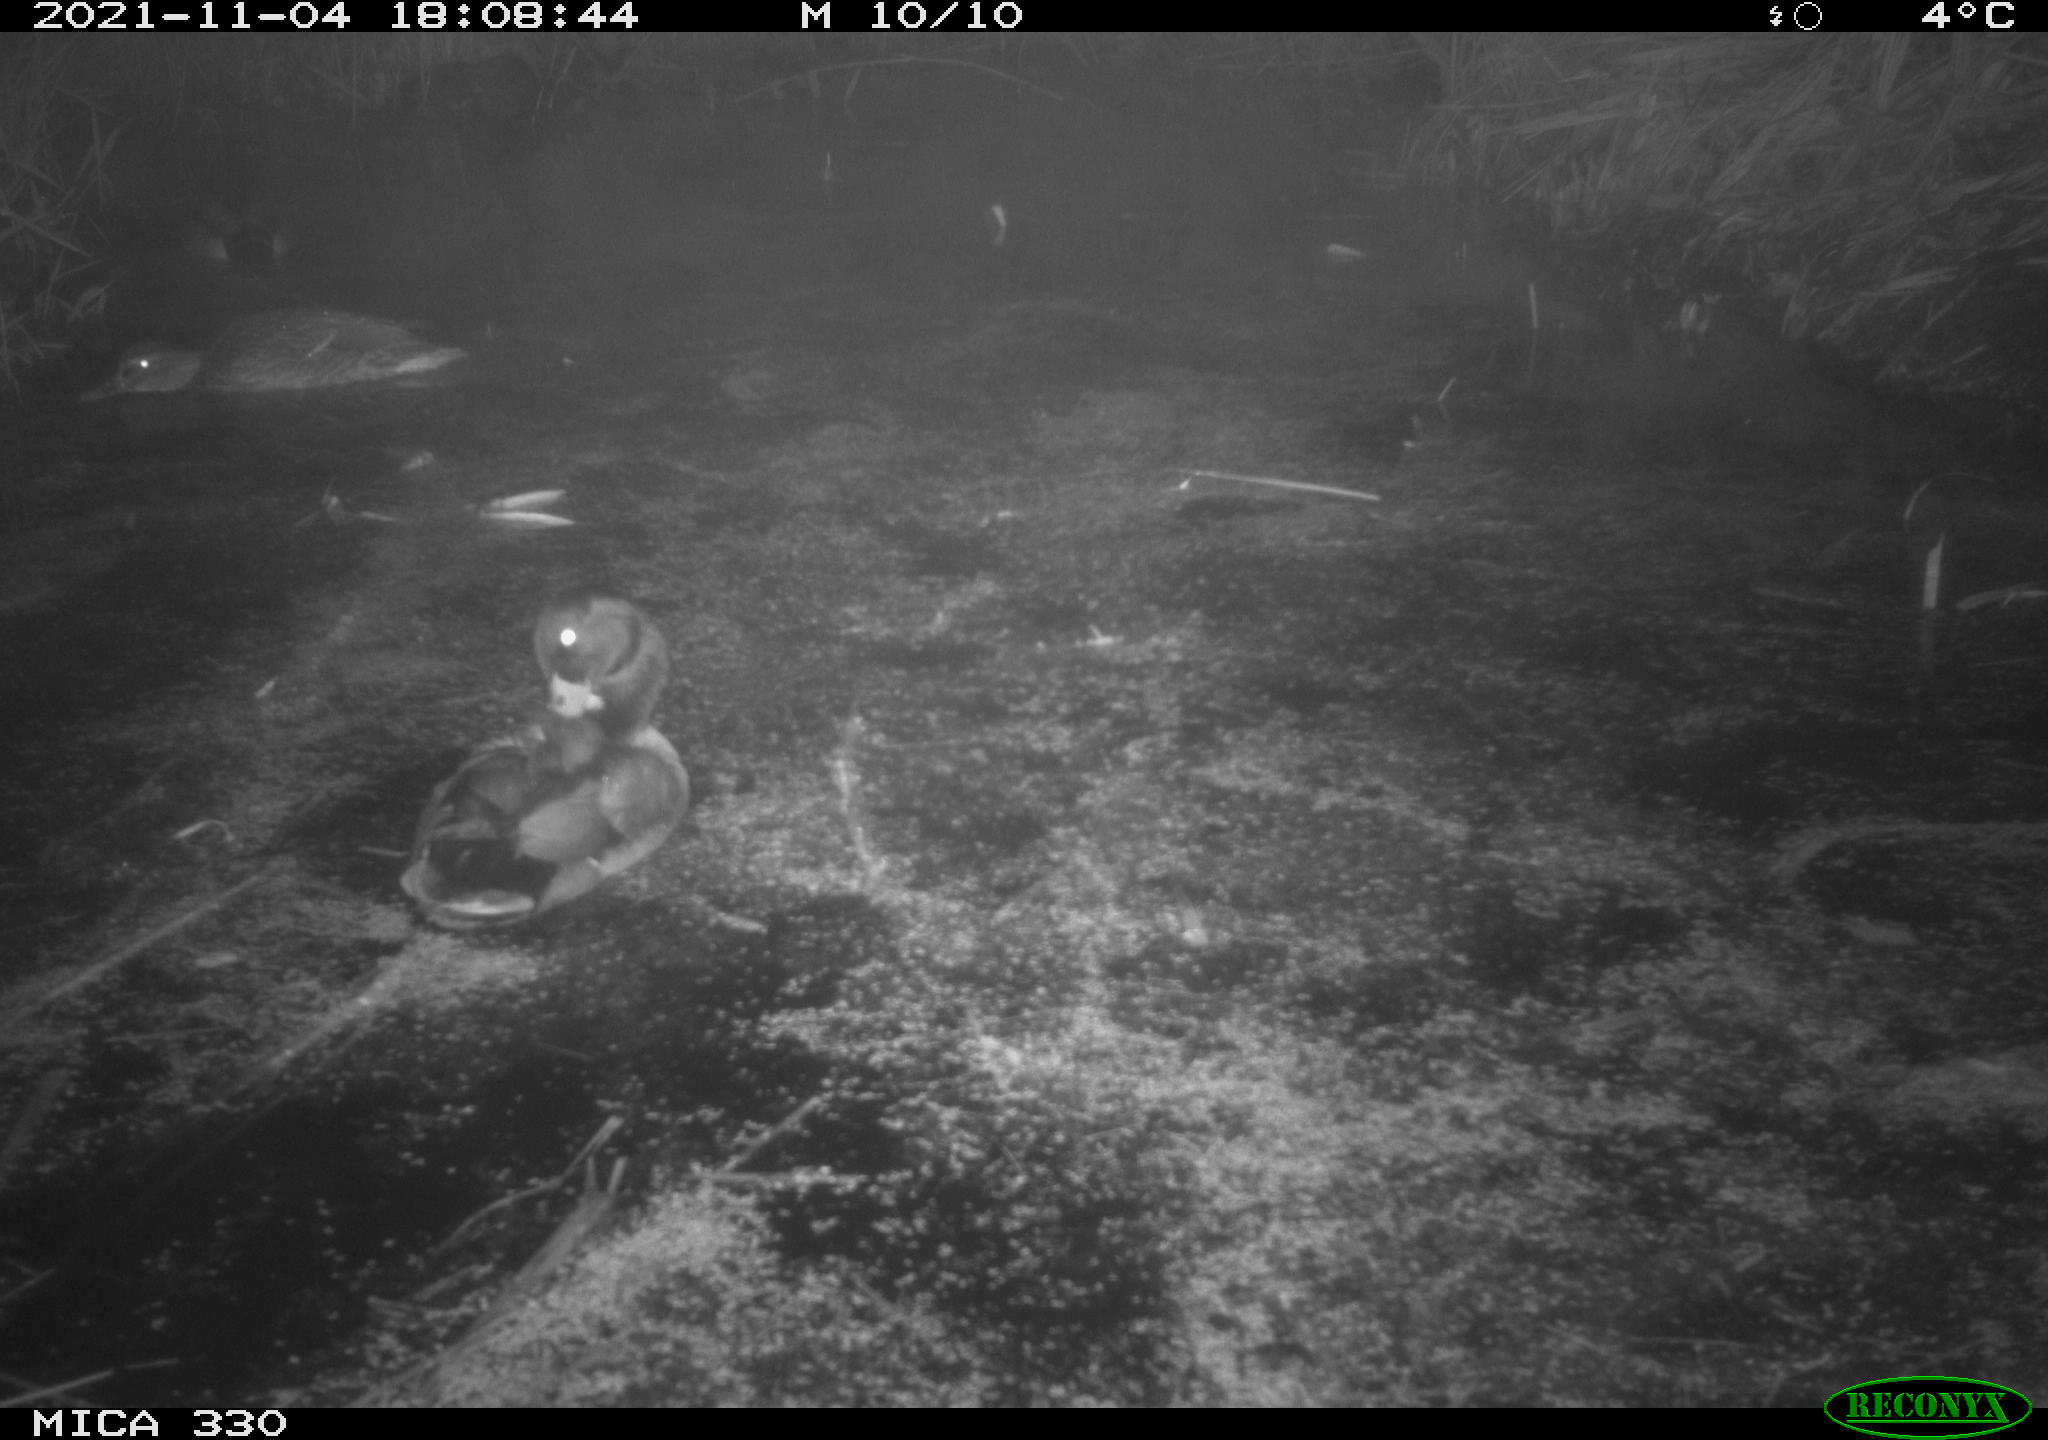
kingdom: Animalia
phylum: Chordata
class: Aves
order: Anseriformes
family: Anatidae
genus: Anas
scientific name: Anas platyrhynchos
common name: Mallard
